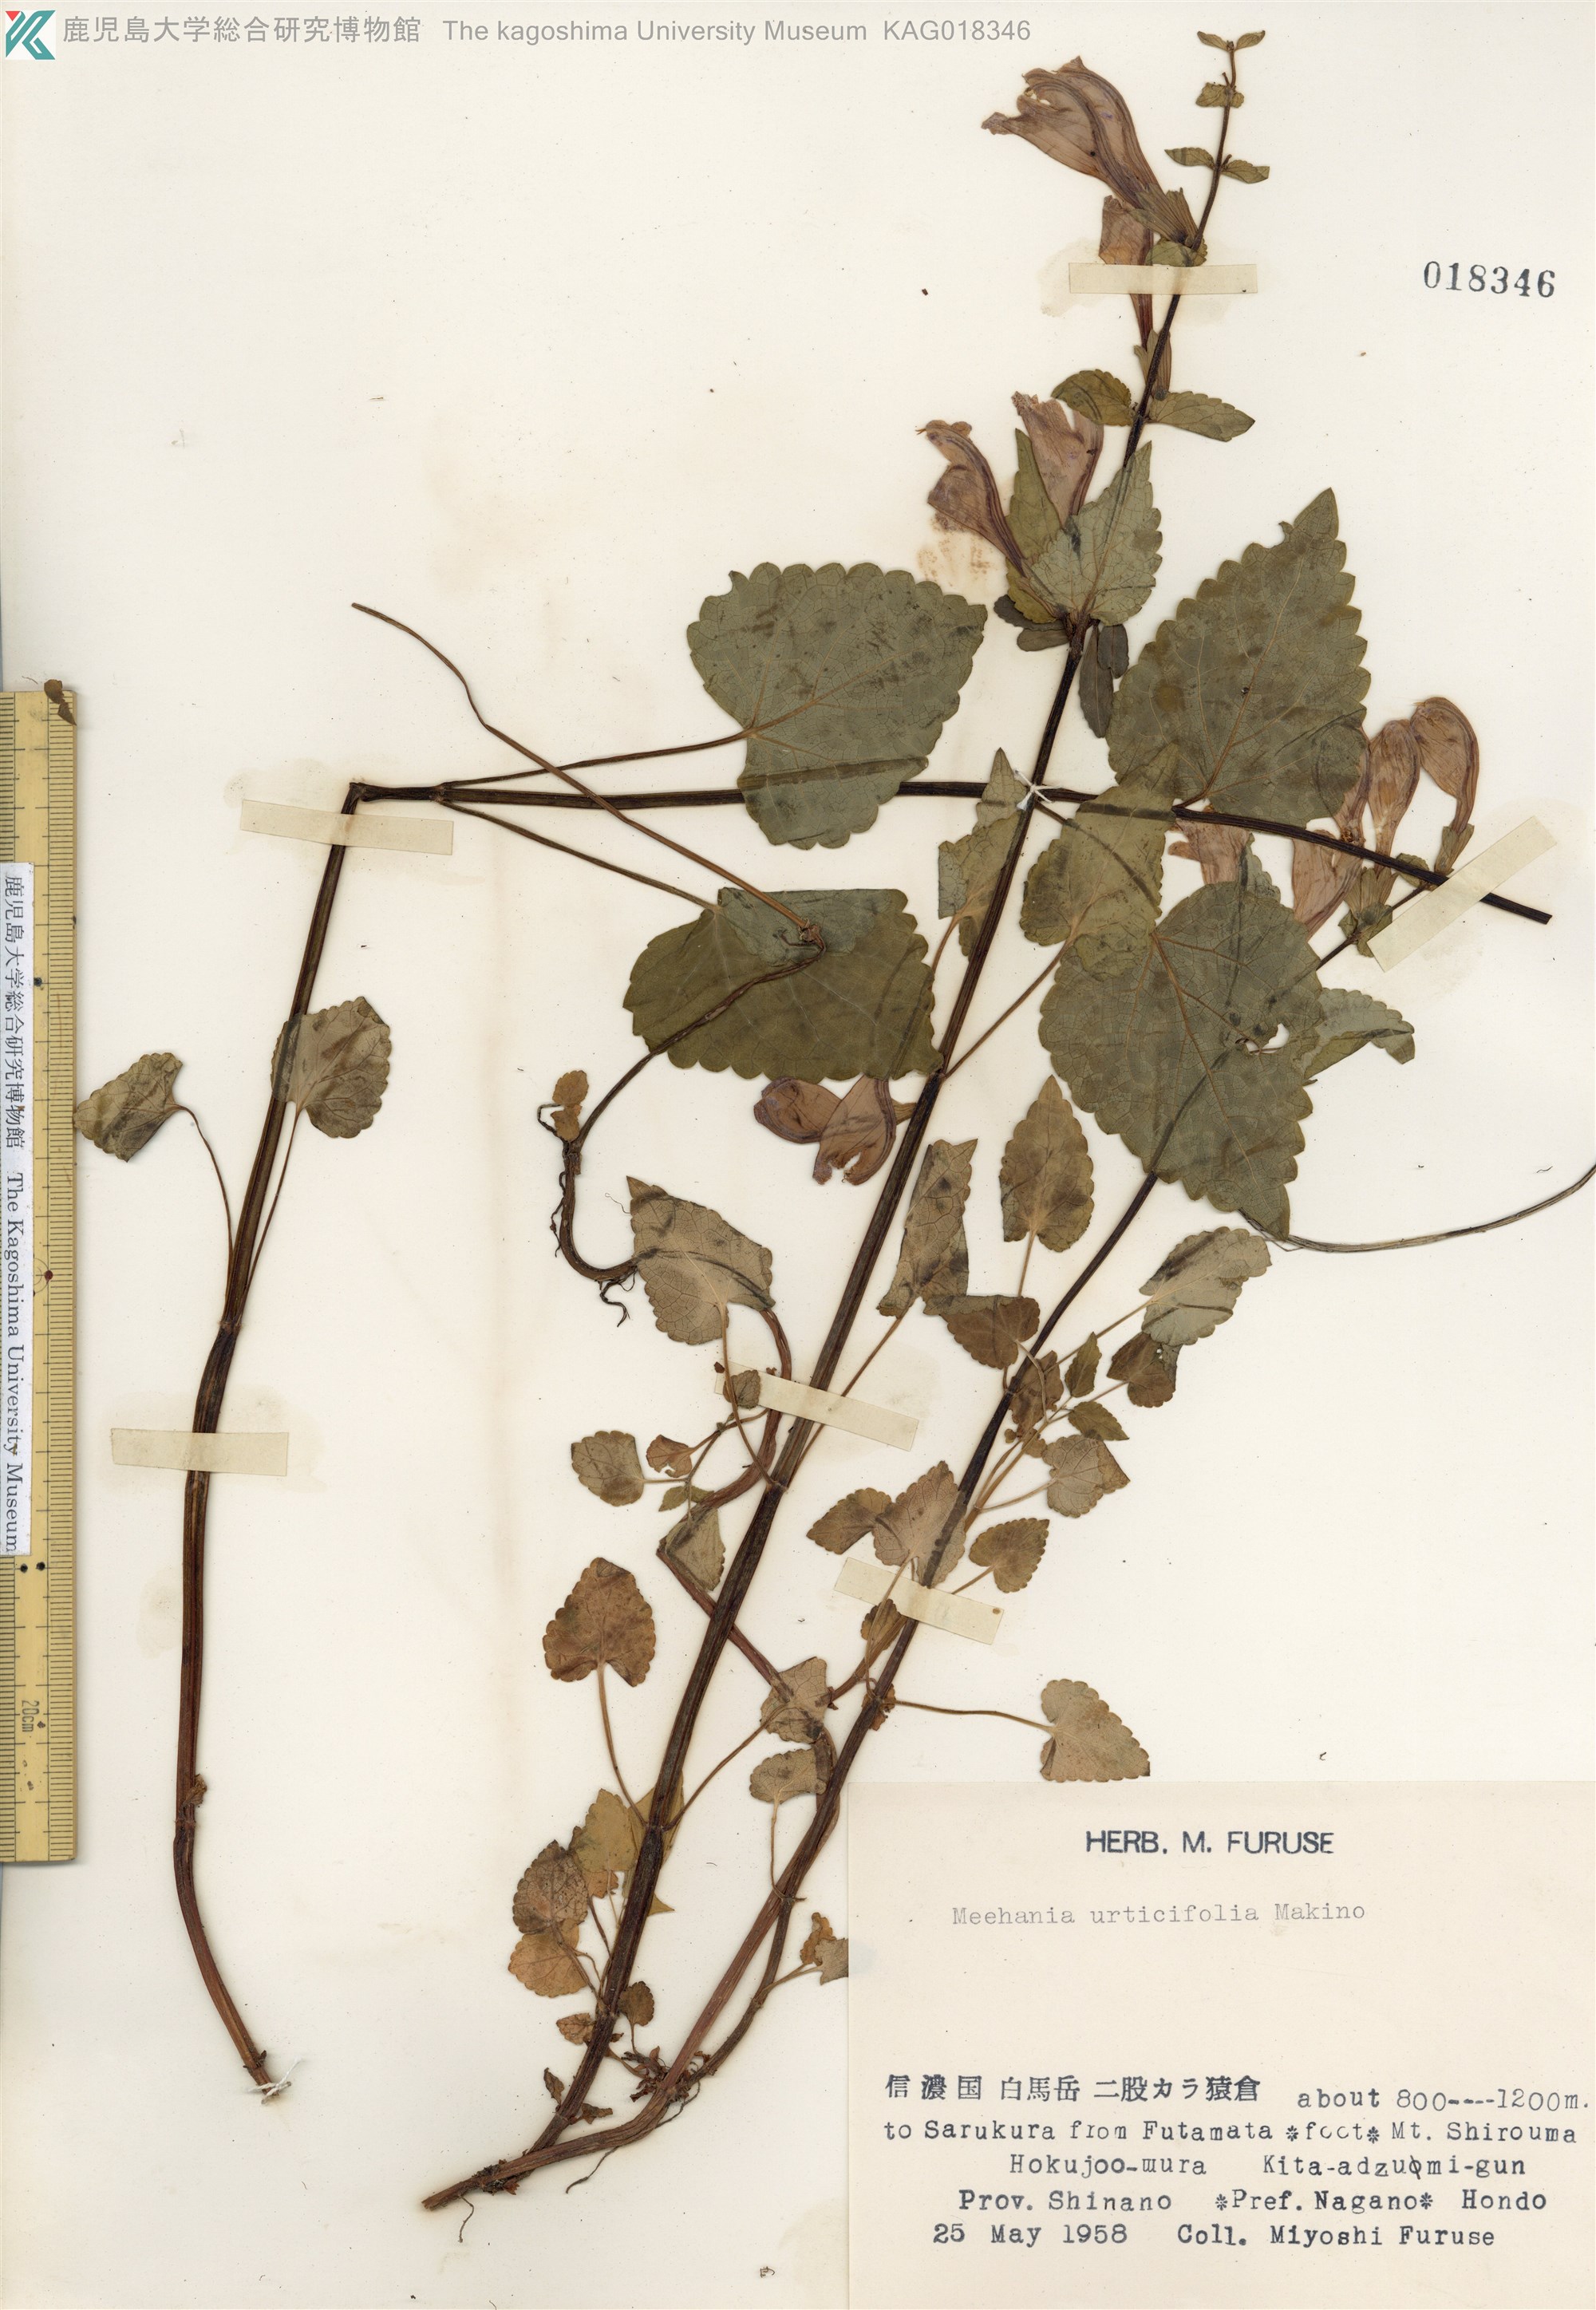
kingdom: Plantae
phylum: Tracheophyta
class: Magnoliopsida
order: Lamiales
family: Lamiaceae
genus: Meehania
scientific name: Meehania urticifolia
